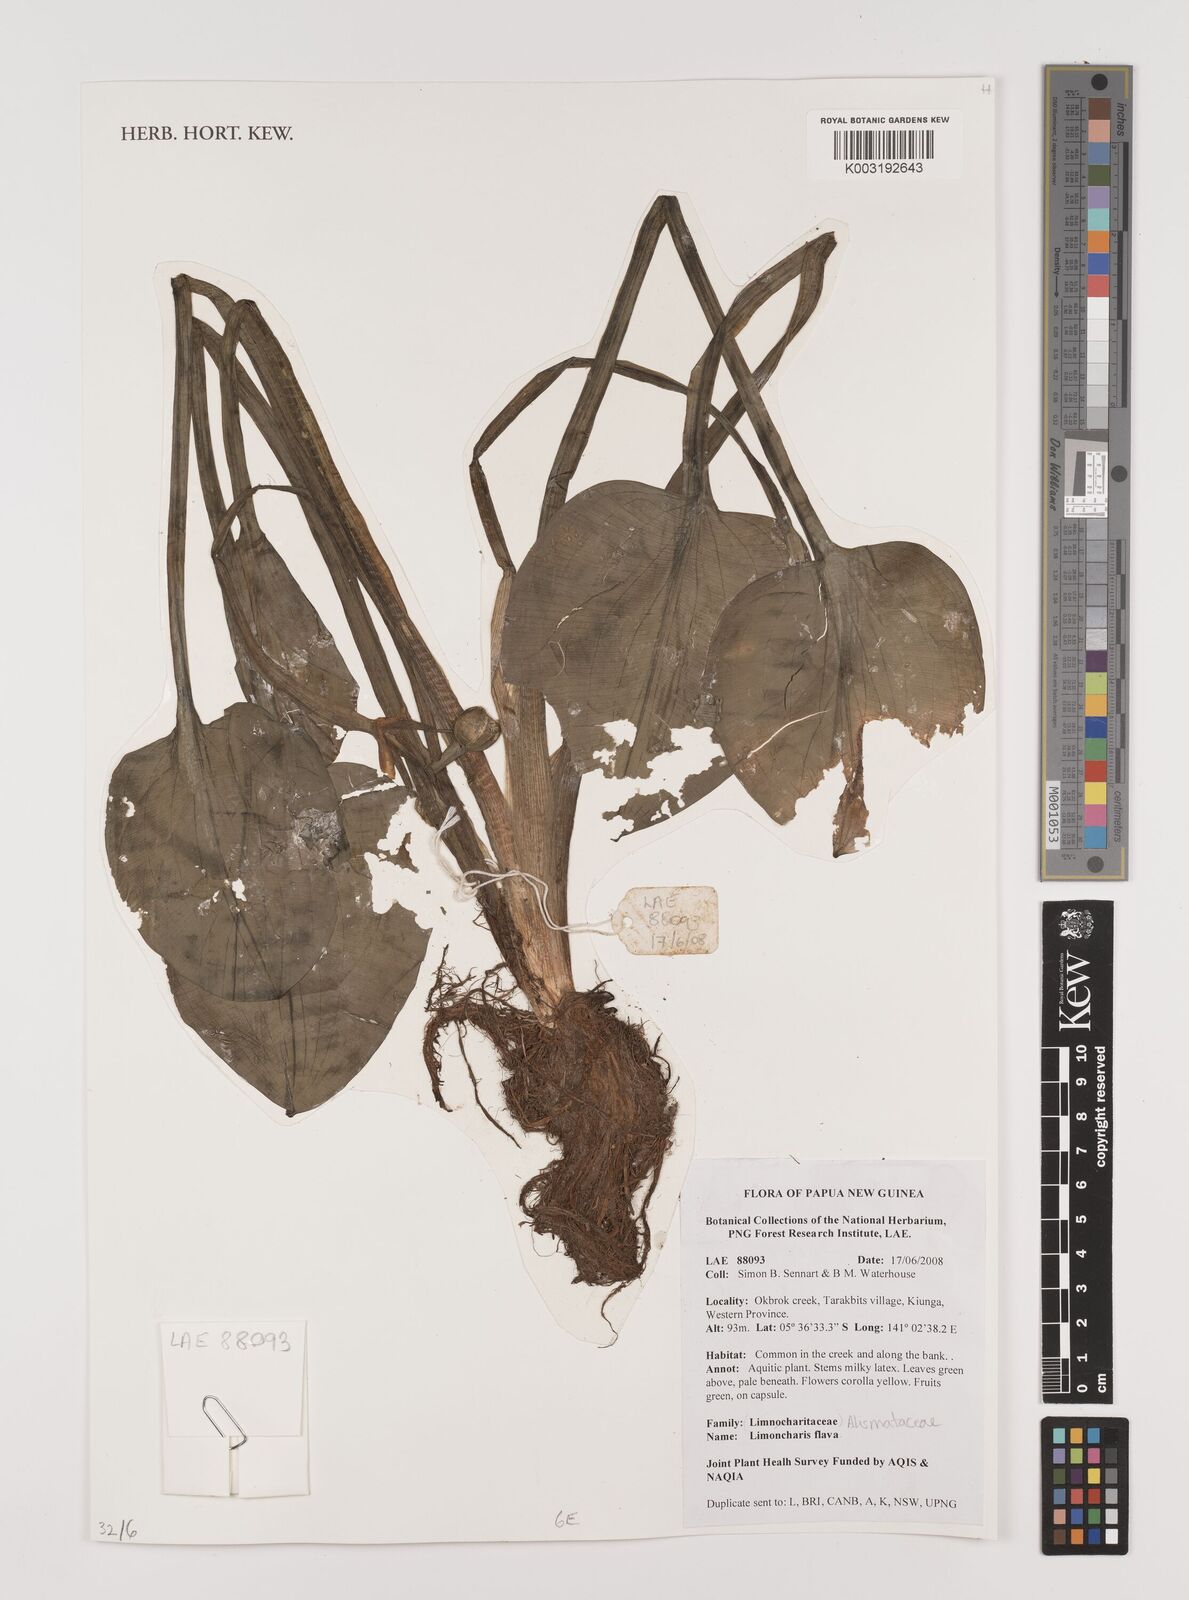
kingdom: Plantae
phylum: Tracheophyta
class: Liliopsida
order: Alismatales
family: Alismataceae
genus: Limnocharis
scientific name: Limnocharis flava
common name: Sawah-flower-rush
